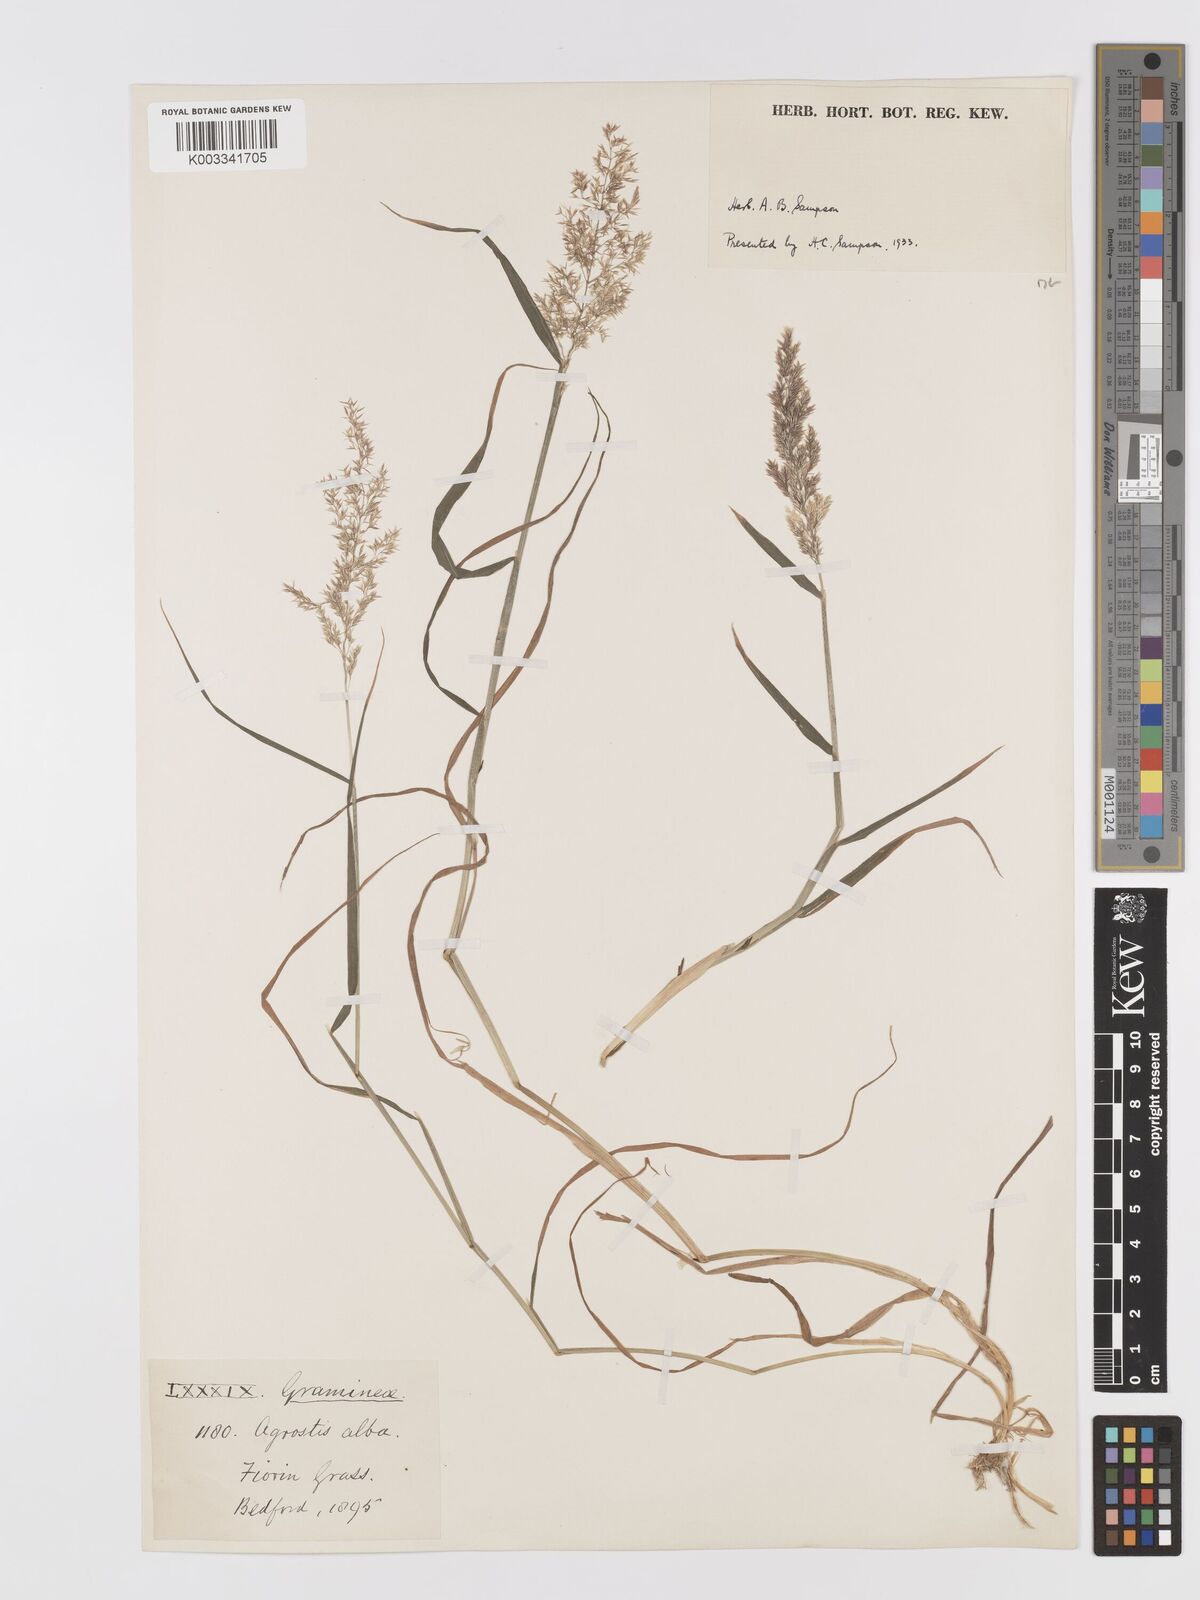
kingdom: Plantae
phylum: Tracheophyta
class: Liliopsida
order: Poales
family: Poaceae
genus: Agrostis
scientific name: Agrostis stolonifera
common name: Creeping bentgrass
